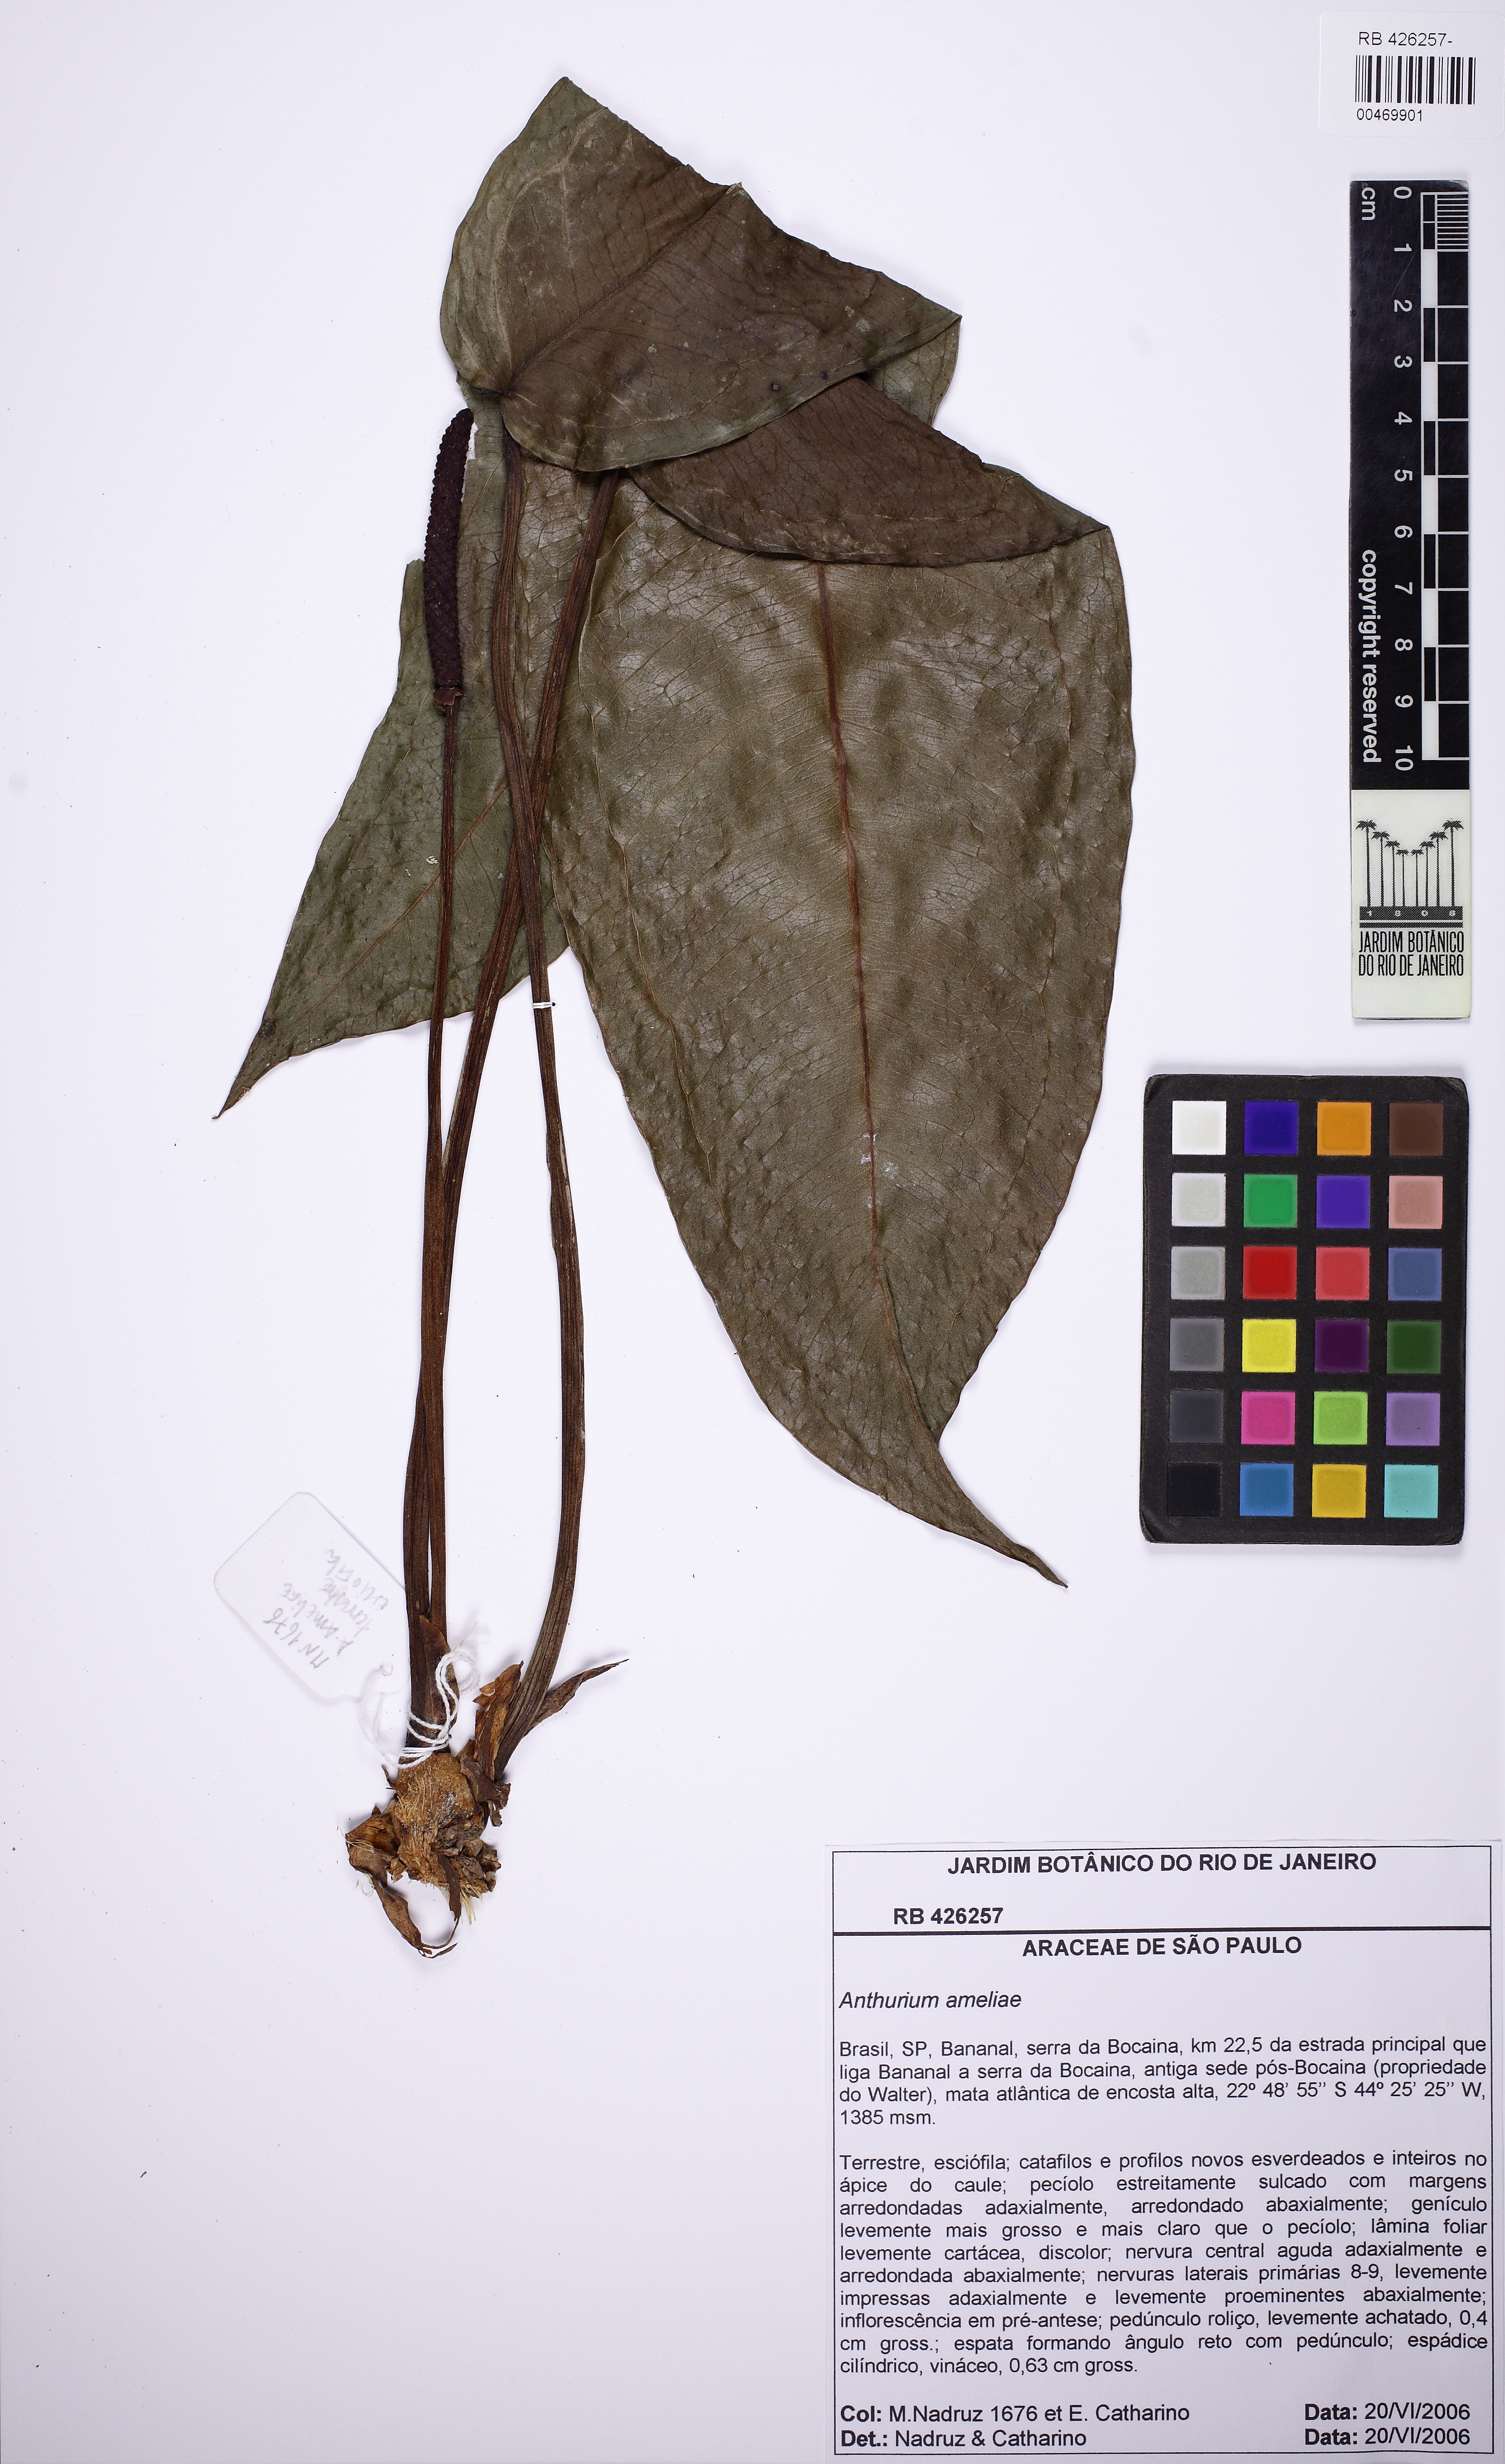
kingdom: Plantae
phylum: Tracheophyta
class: Liliopsida
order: Alismatales
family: Araceae
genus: Anthurium
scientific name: Anthurium ameliae
